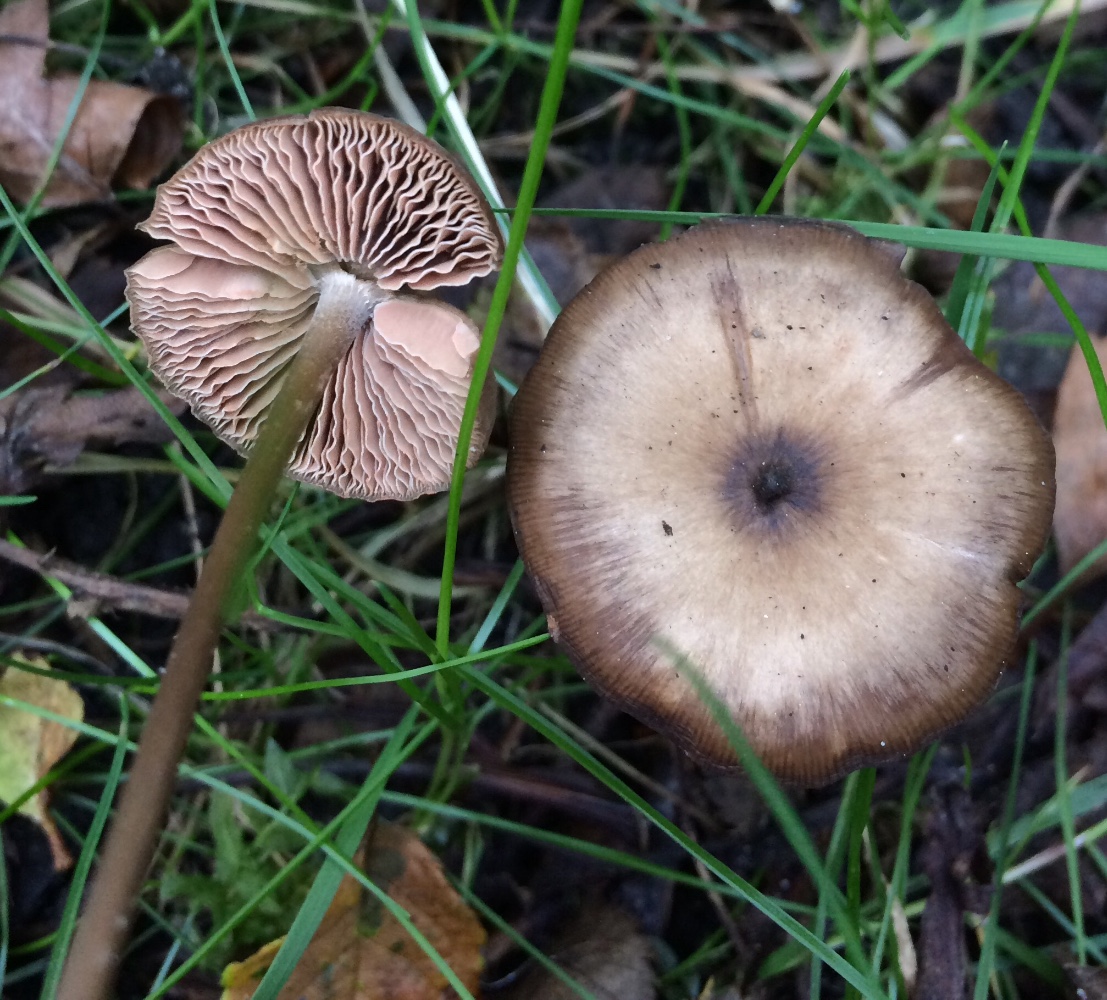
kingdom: Fungi
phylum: Basidiomycota
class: Agaricomycetes
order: Agaricales
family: Entolomataceae
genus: Entoloma
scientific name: Entoloma
